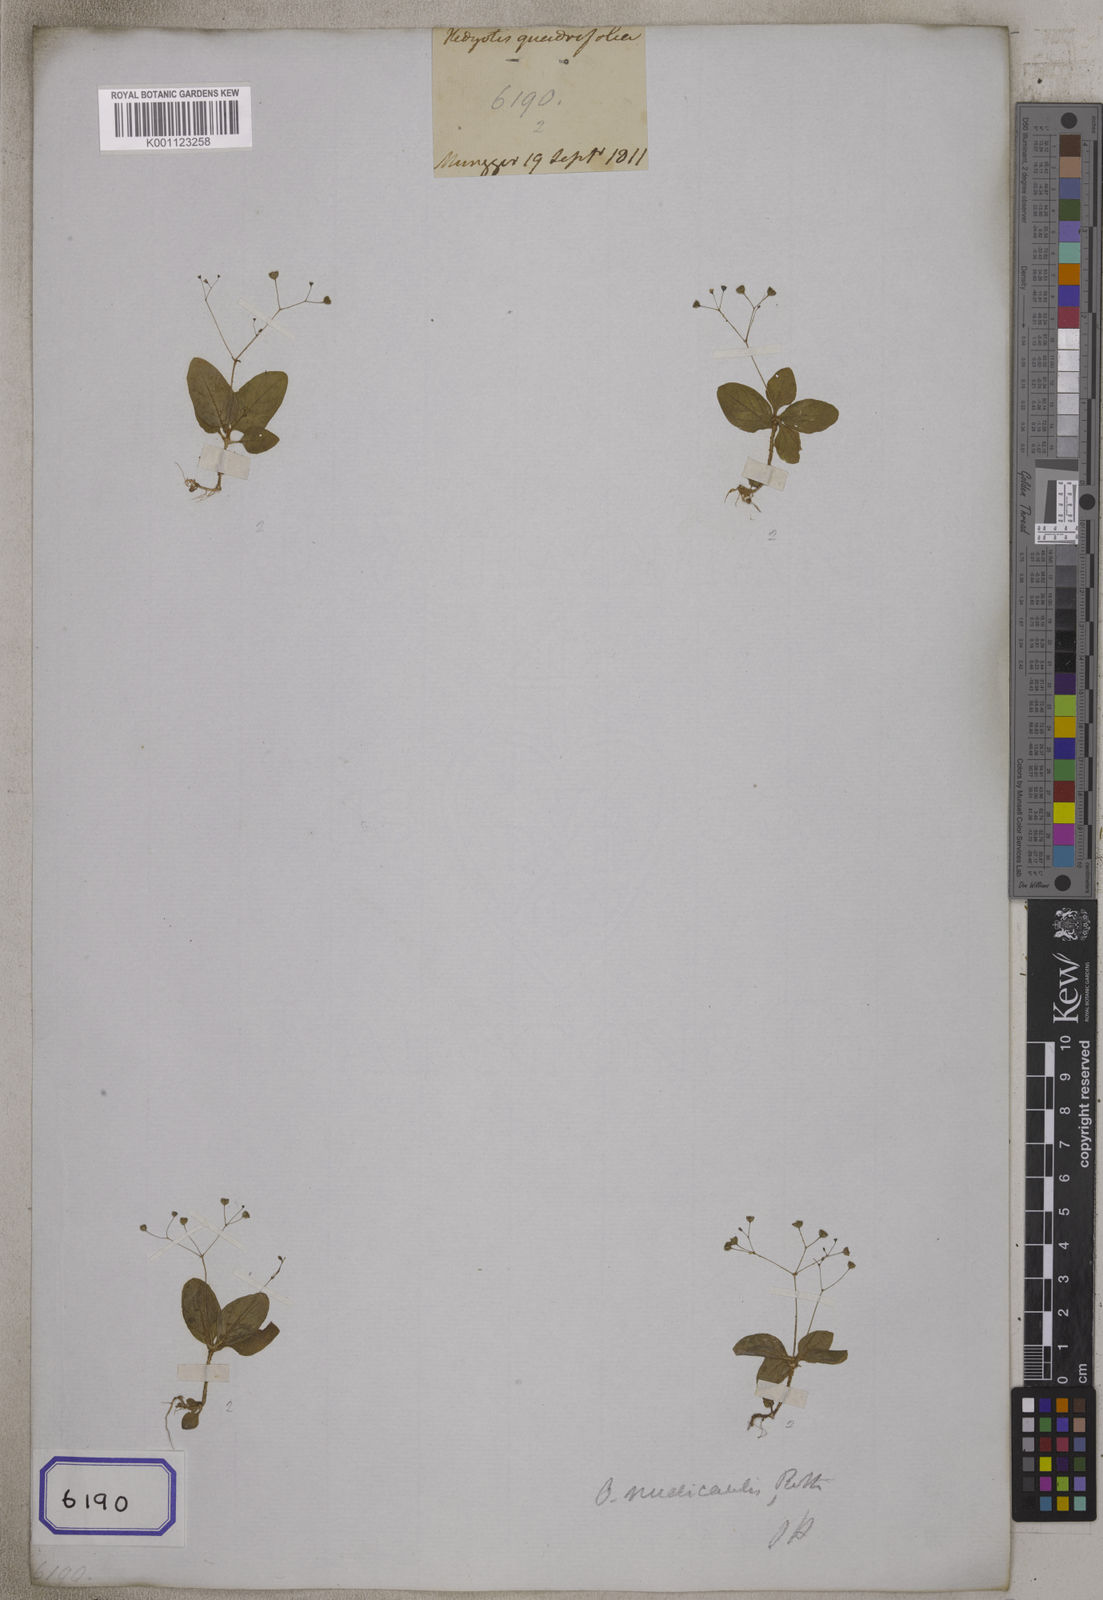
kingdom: Plantae
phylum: Tracheophyta
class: Magnoliopsida
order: Gentianales
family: Rubiaceae
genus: Hedyotis
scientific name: Hedyotis
